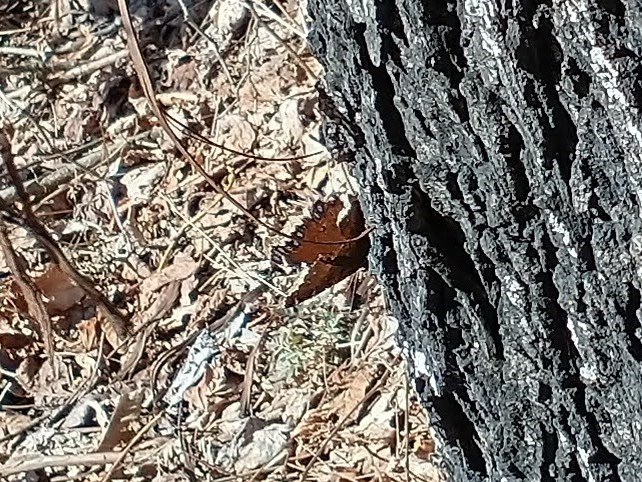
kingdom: Animalia
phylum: Arthropoda
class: Insecta
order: Lepidoptera
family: Nymphalidae
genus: Nymphalis
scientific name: Nymphalis antiopa
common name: Mourning Cloak
